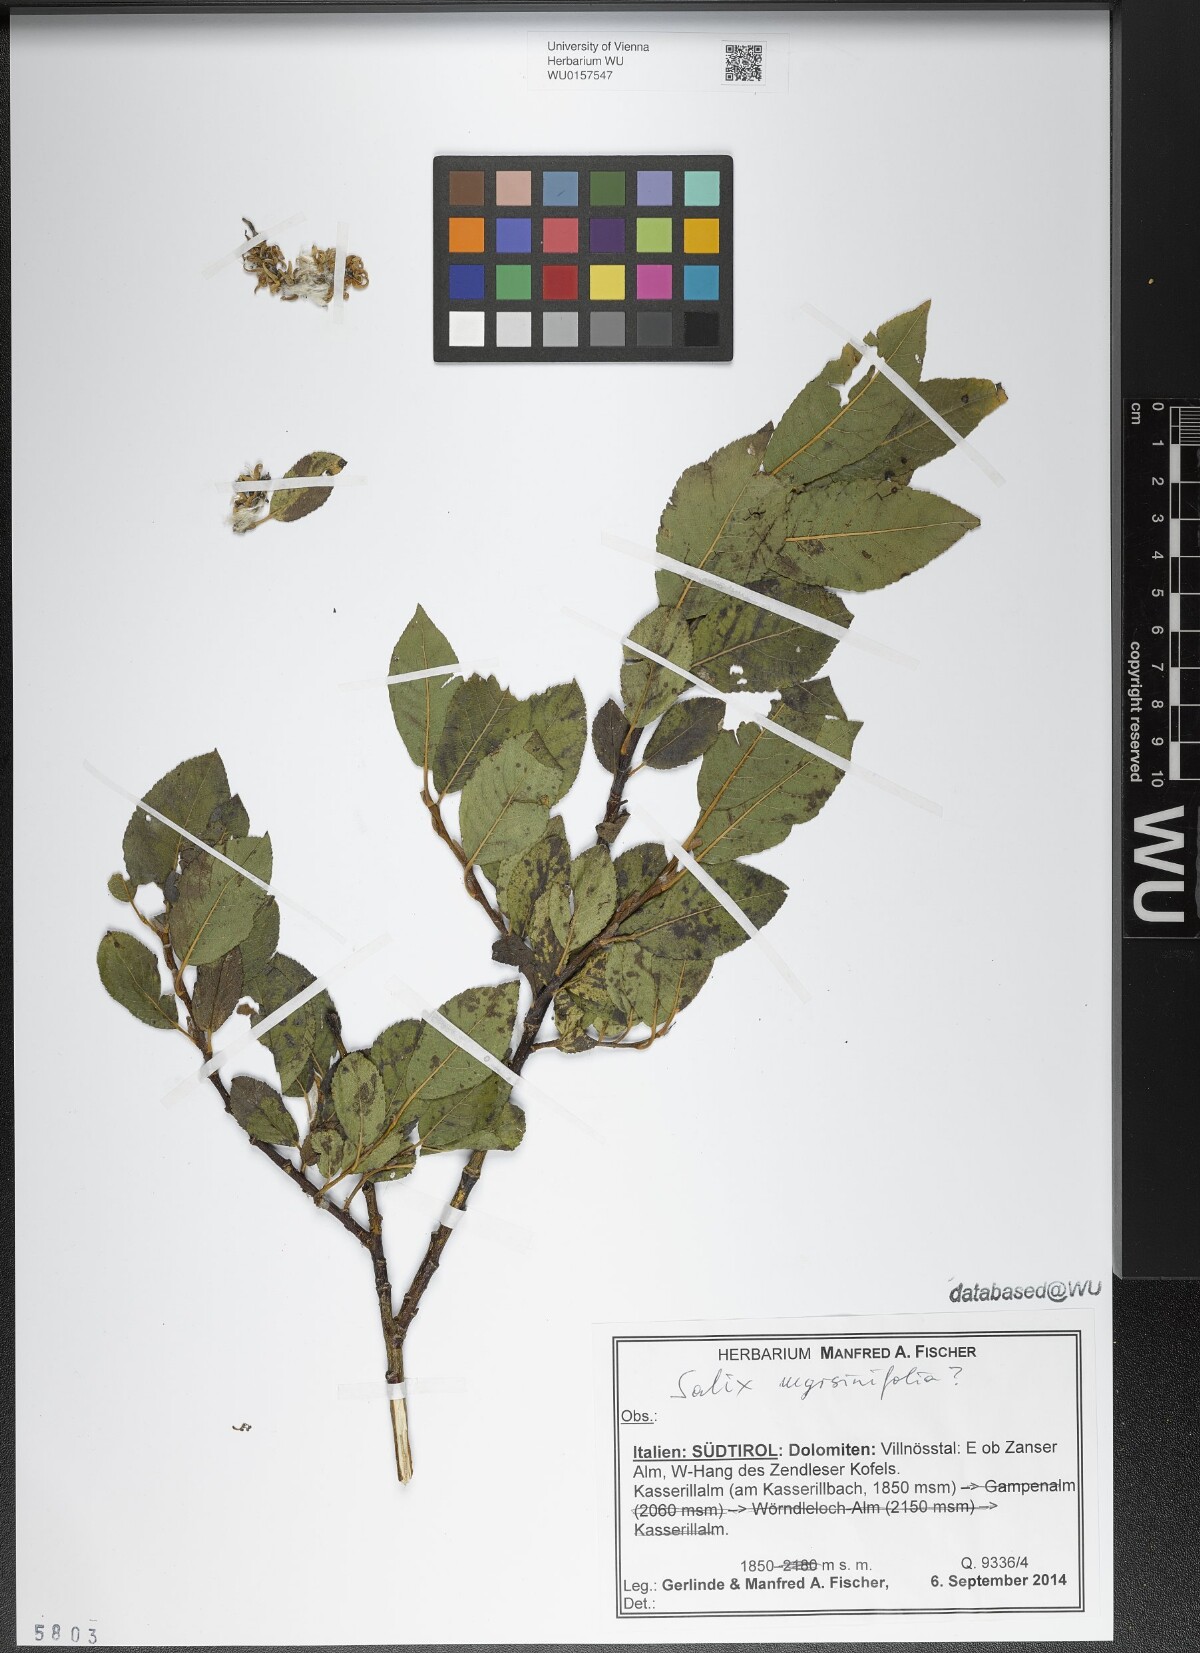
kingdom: Plantae
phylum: Tracheophyta
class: Magnoliopsida
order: Malpighiales
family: Salicaceae
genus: Salix
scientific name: Salix myrsinifolia
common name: Dark-leaved willow
